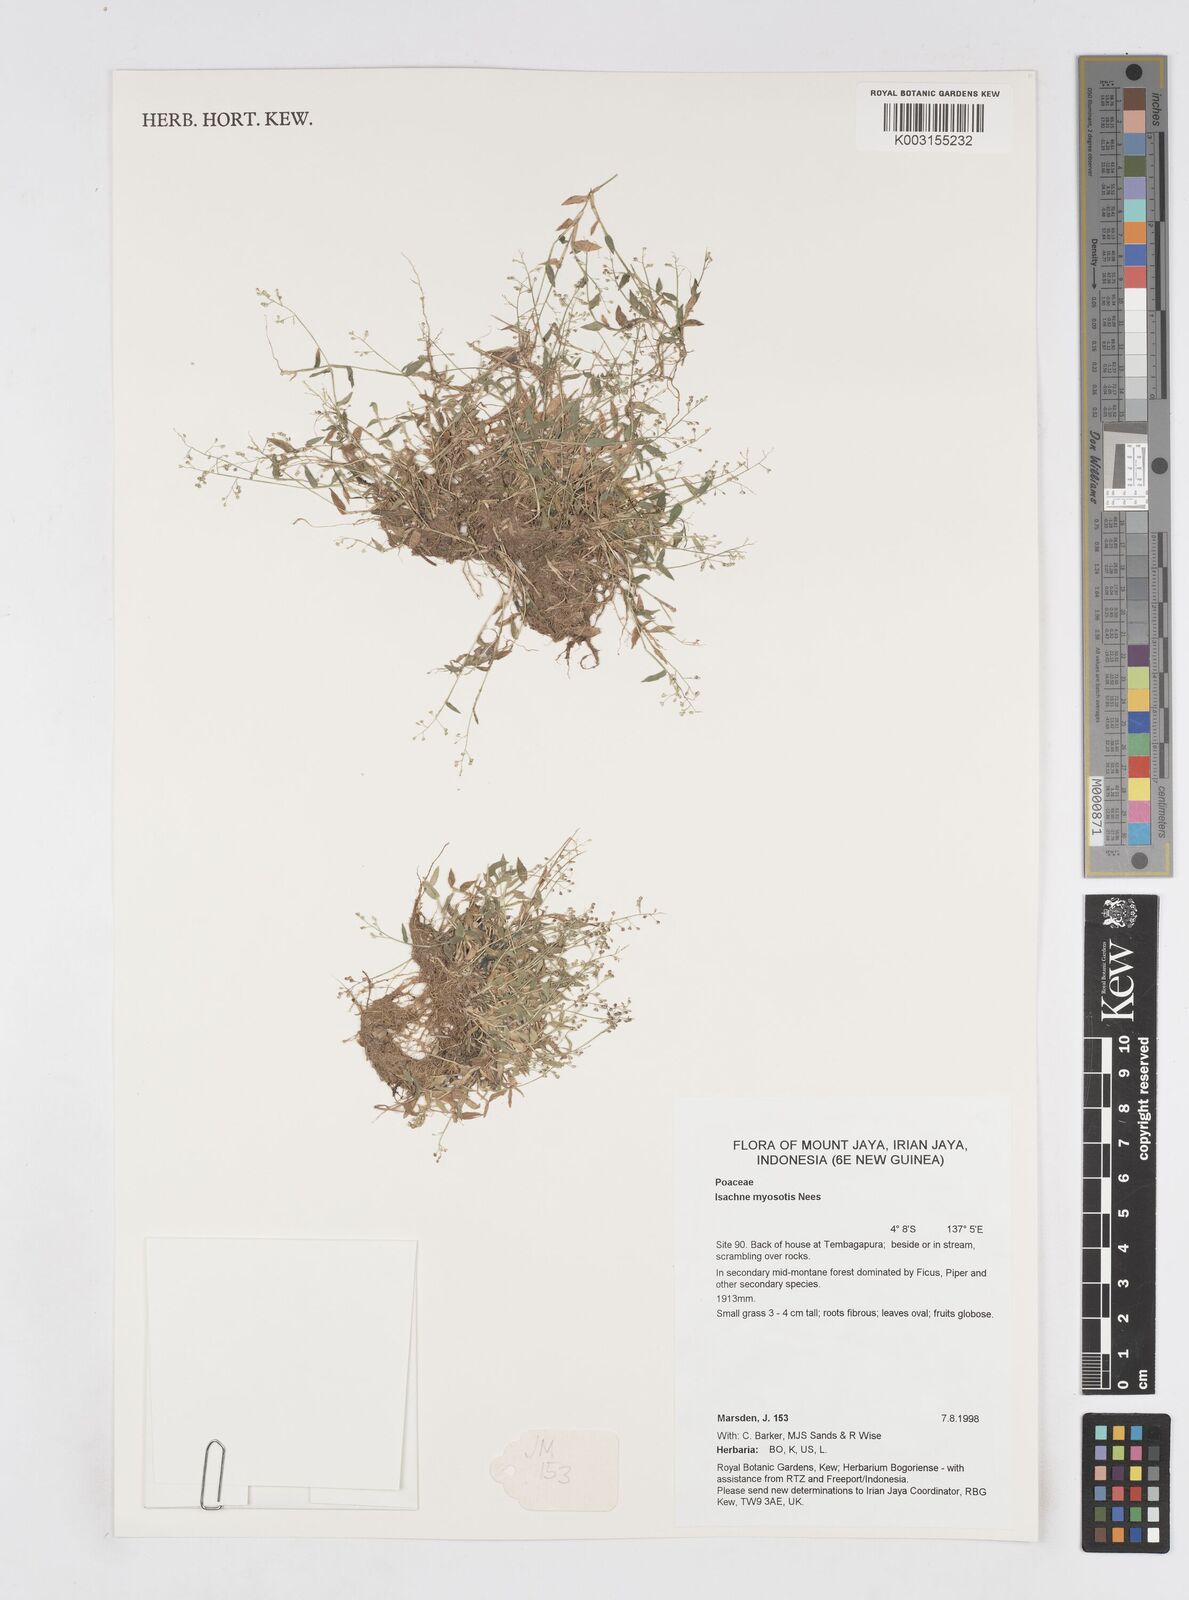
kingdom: Plantae
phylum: Tracheophyta
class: Liliopsida
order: Poales
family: Poaceae
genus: Isachne
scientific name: Isachne myosotis
